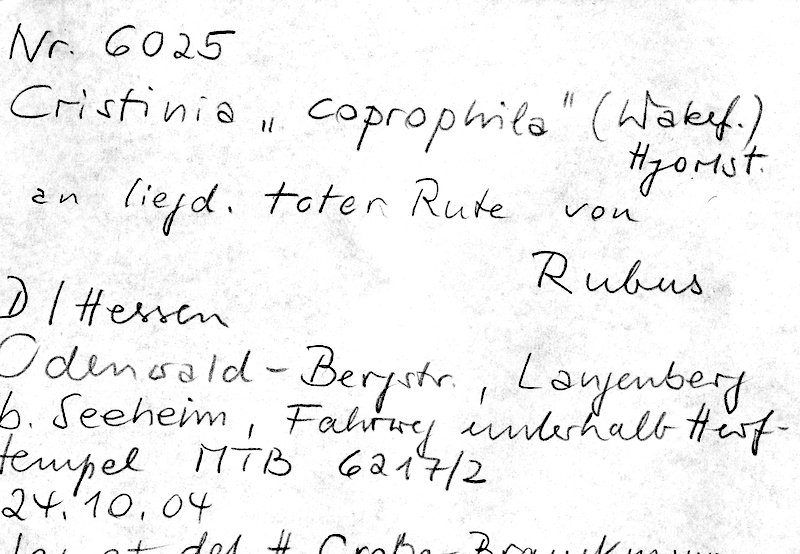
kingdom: Plantae
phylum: Tracheophyta
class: Magnoliopsida
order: Rosales
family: Rosaceae
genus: Rubus
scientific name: Rubus
